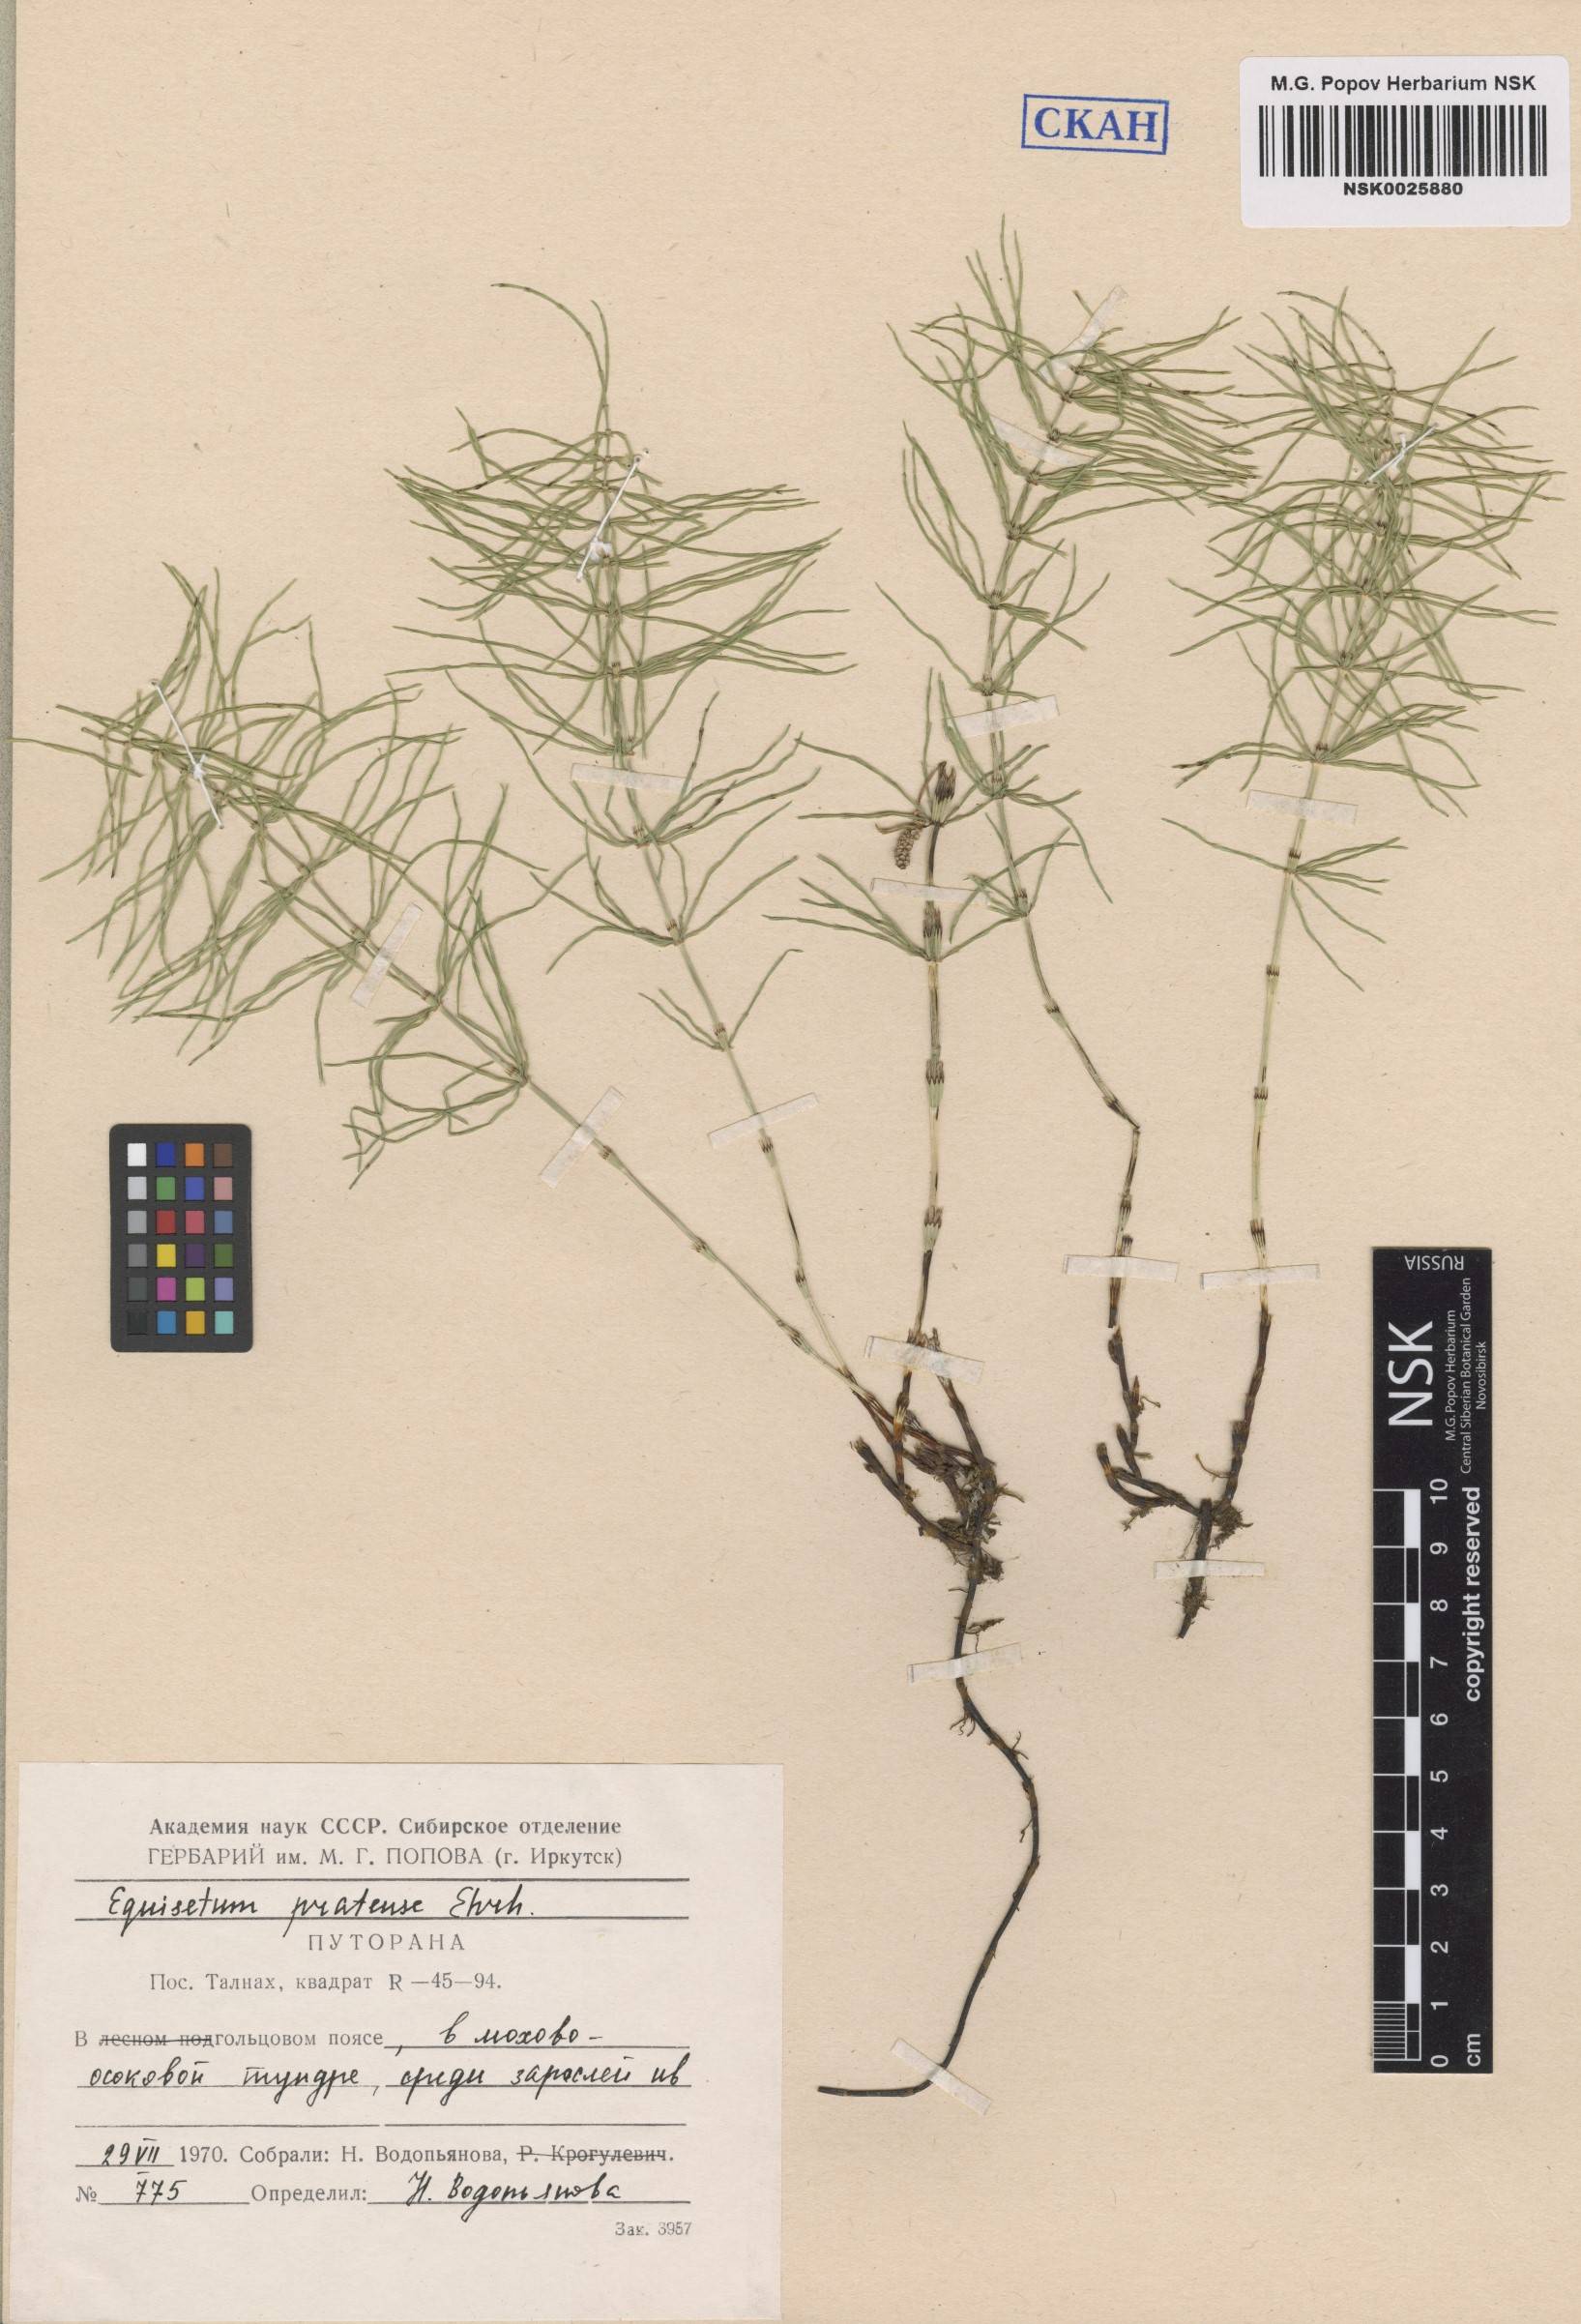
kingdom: Plantae
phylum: Tracheophyta
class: Polypodiopsida
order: Equisetales
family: Equisetaceae
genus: Equisetum
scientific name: Equisetum pratense
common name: Meadow horsetail
